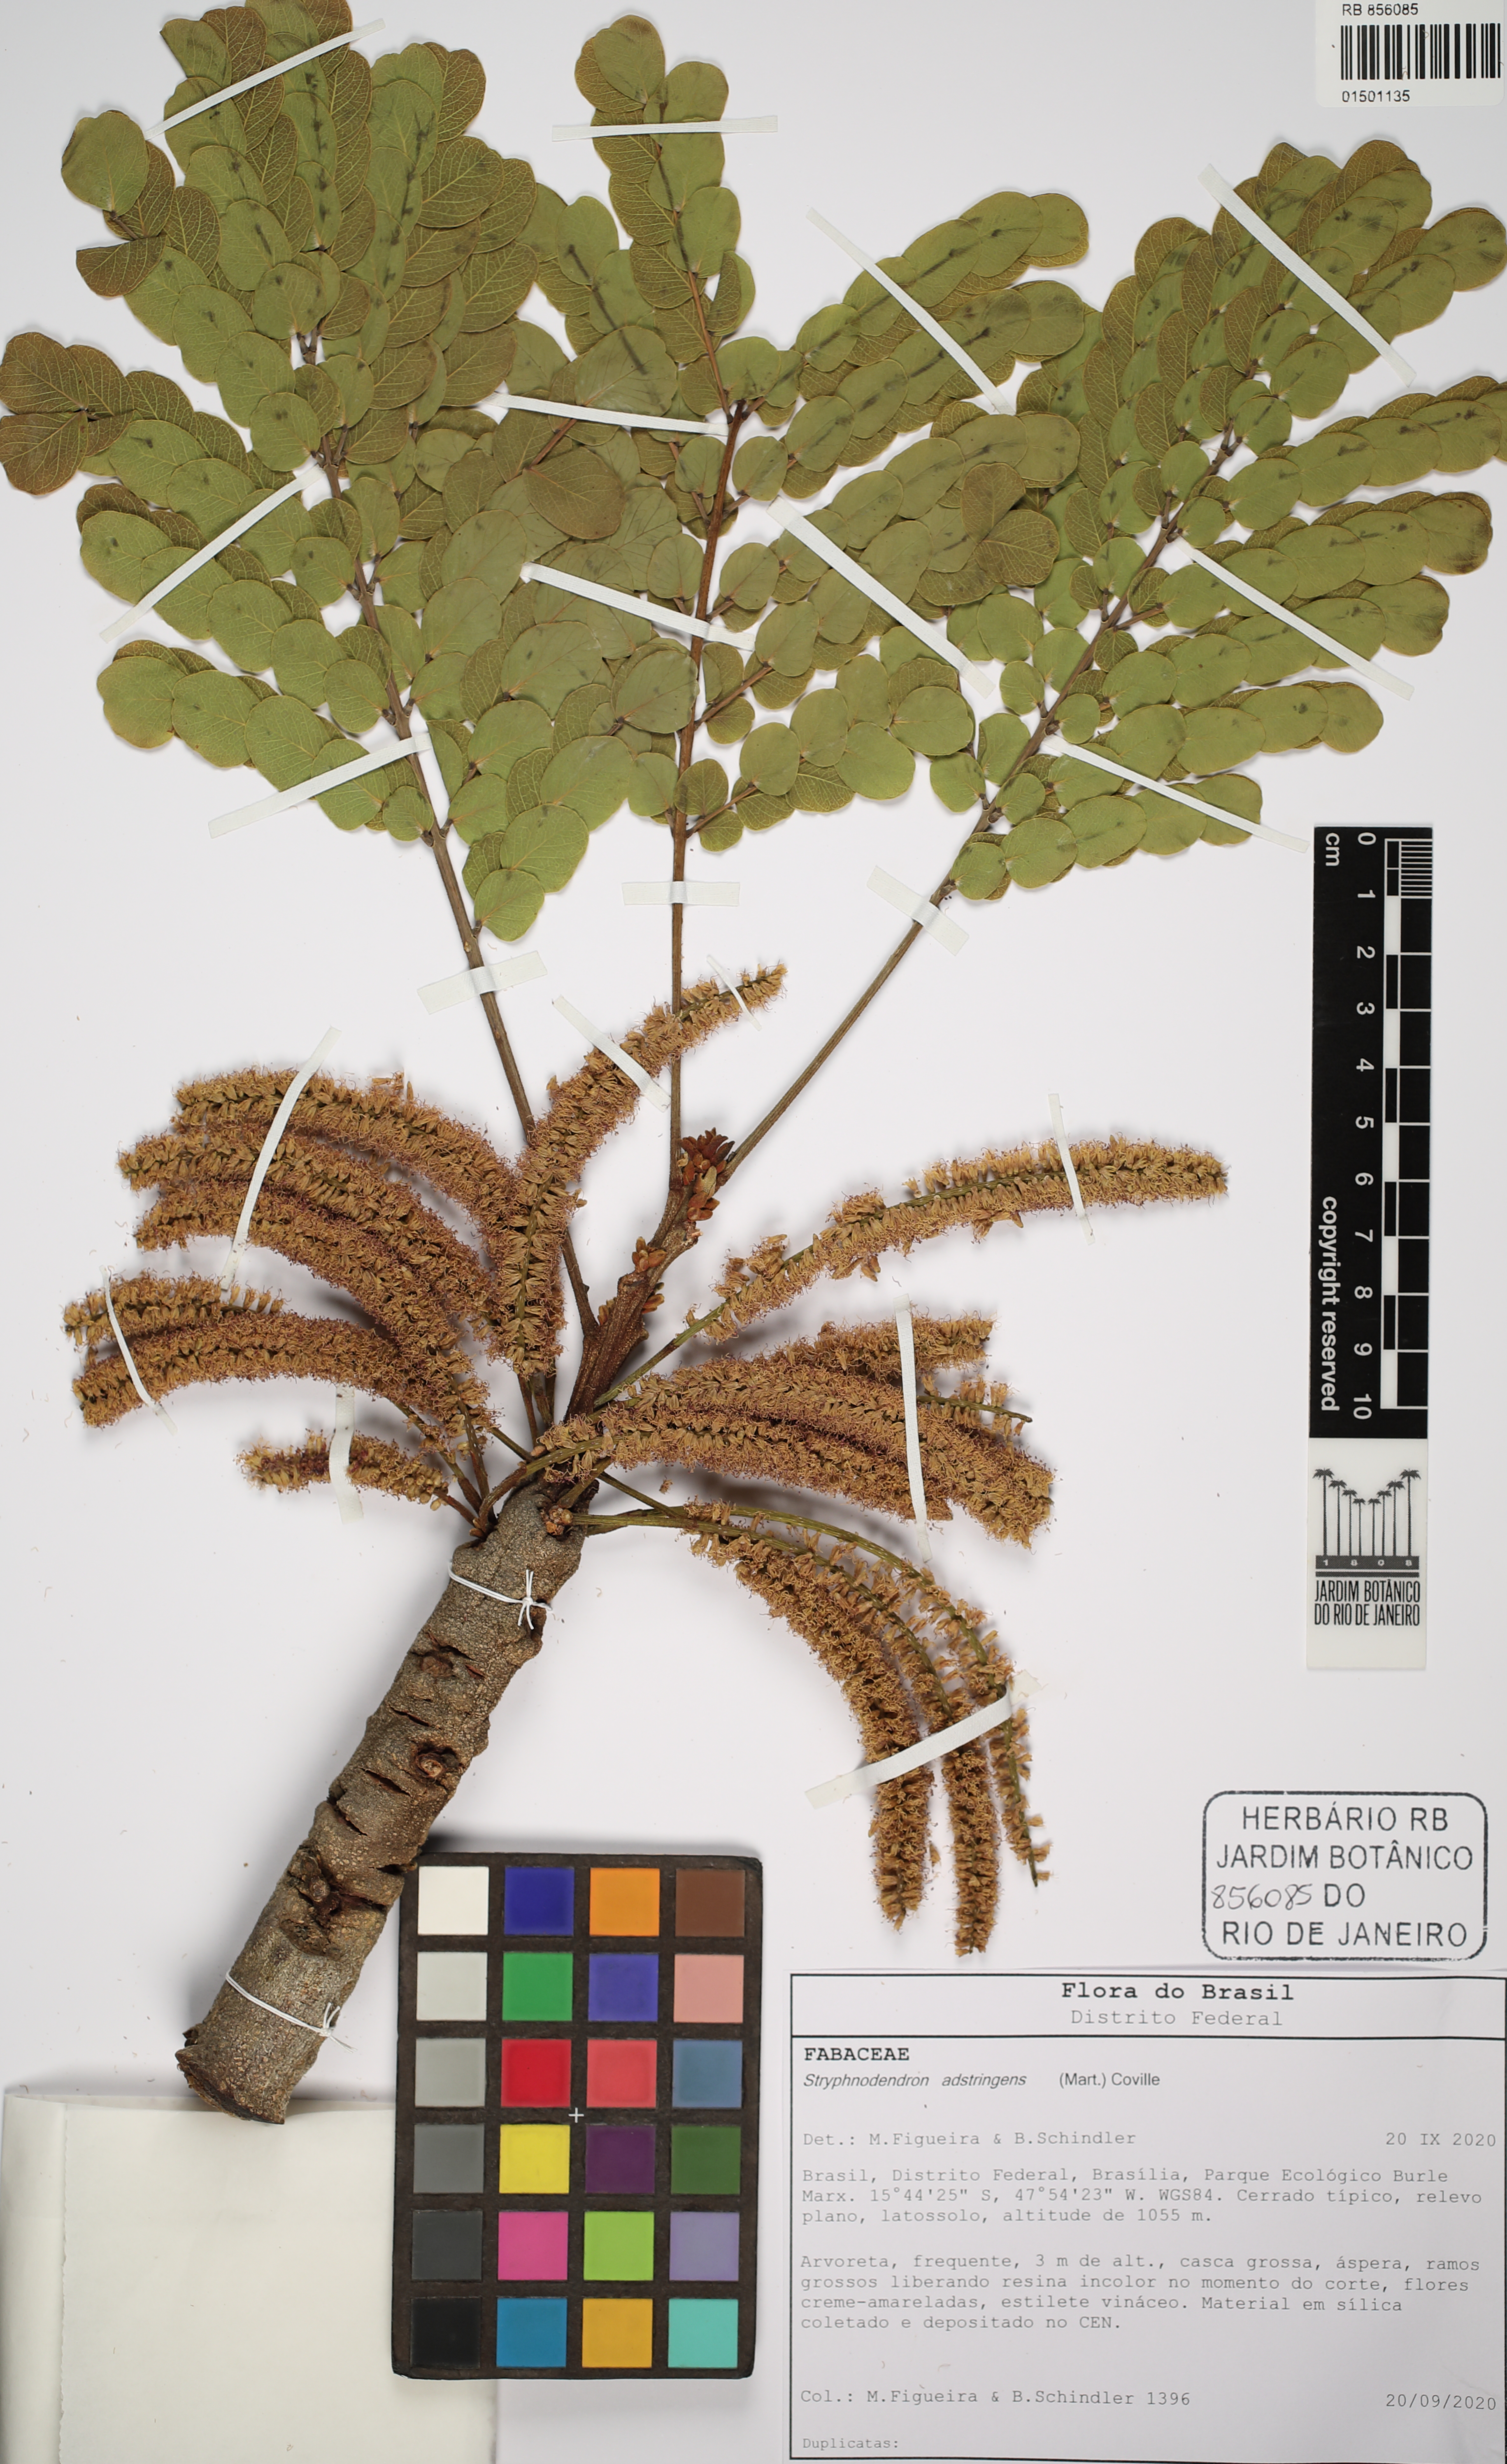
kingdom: Plantae
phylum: Tracheophyta
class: Magnoliopsida
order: Fabales
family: Fabaceae
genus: Stryphnodendron
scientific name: Stryphnodendron adstringens
